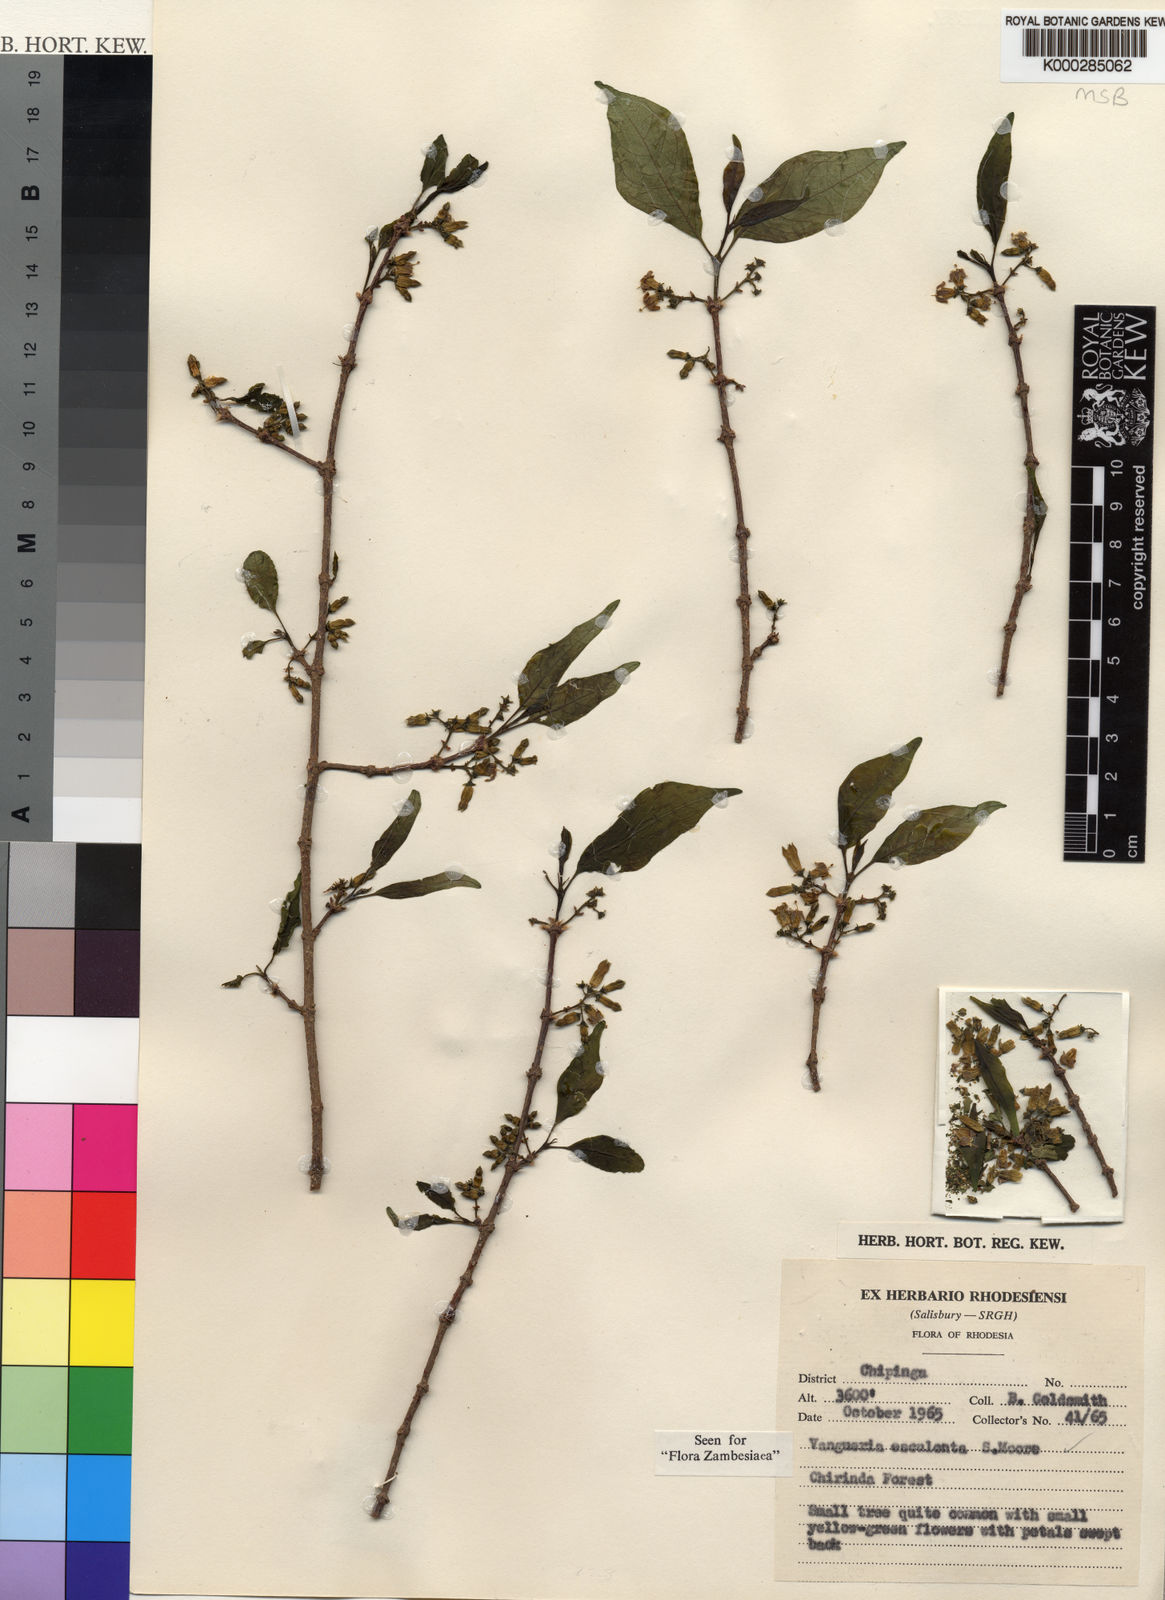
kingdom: Plantae
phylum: Tracheophyta
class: Magnoliopsida
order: Gentianales
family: Rubiaceae
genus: Vangueria
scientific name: Vangueria esculenta
